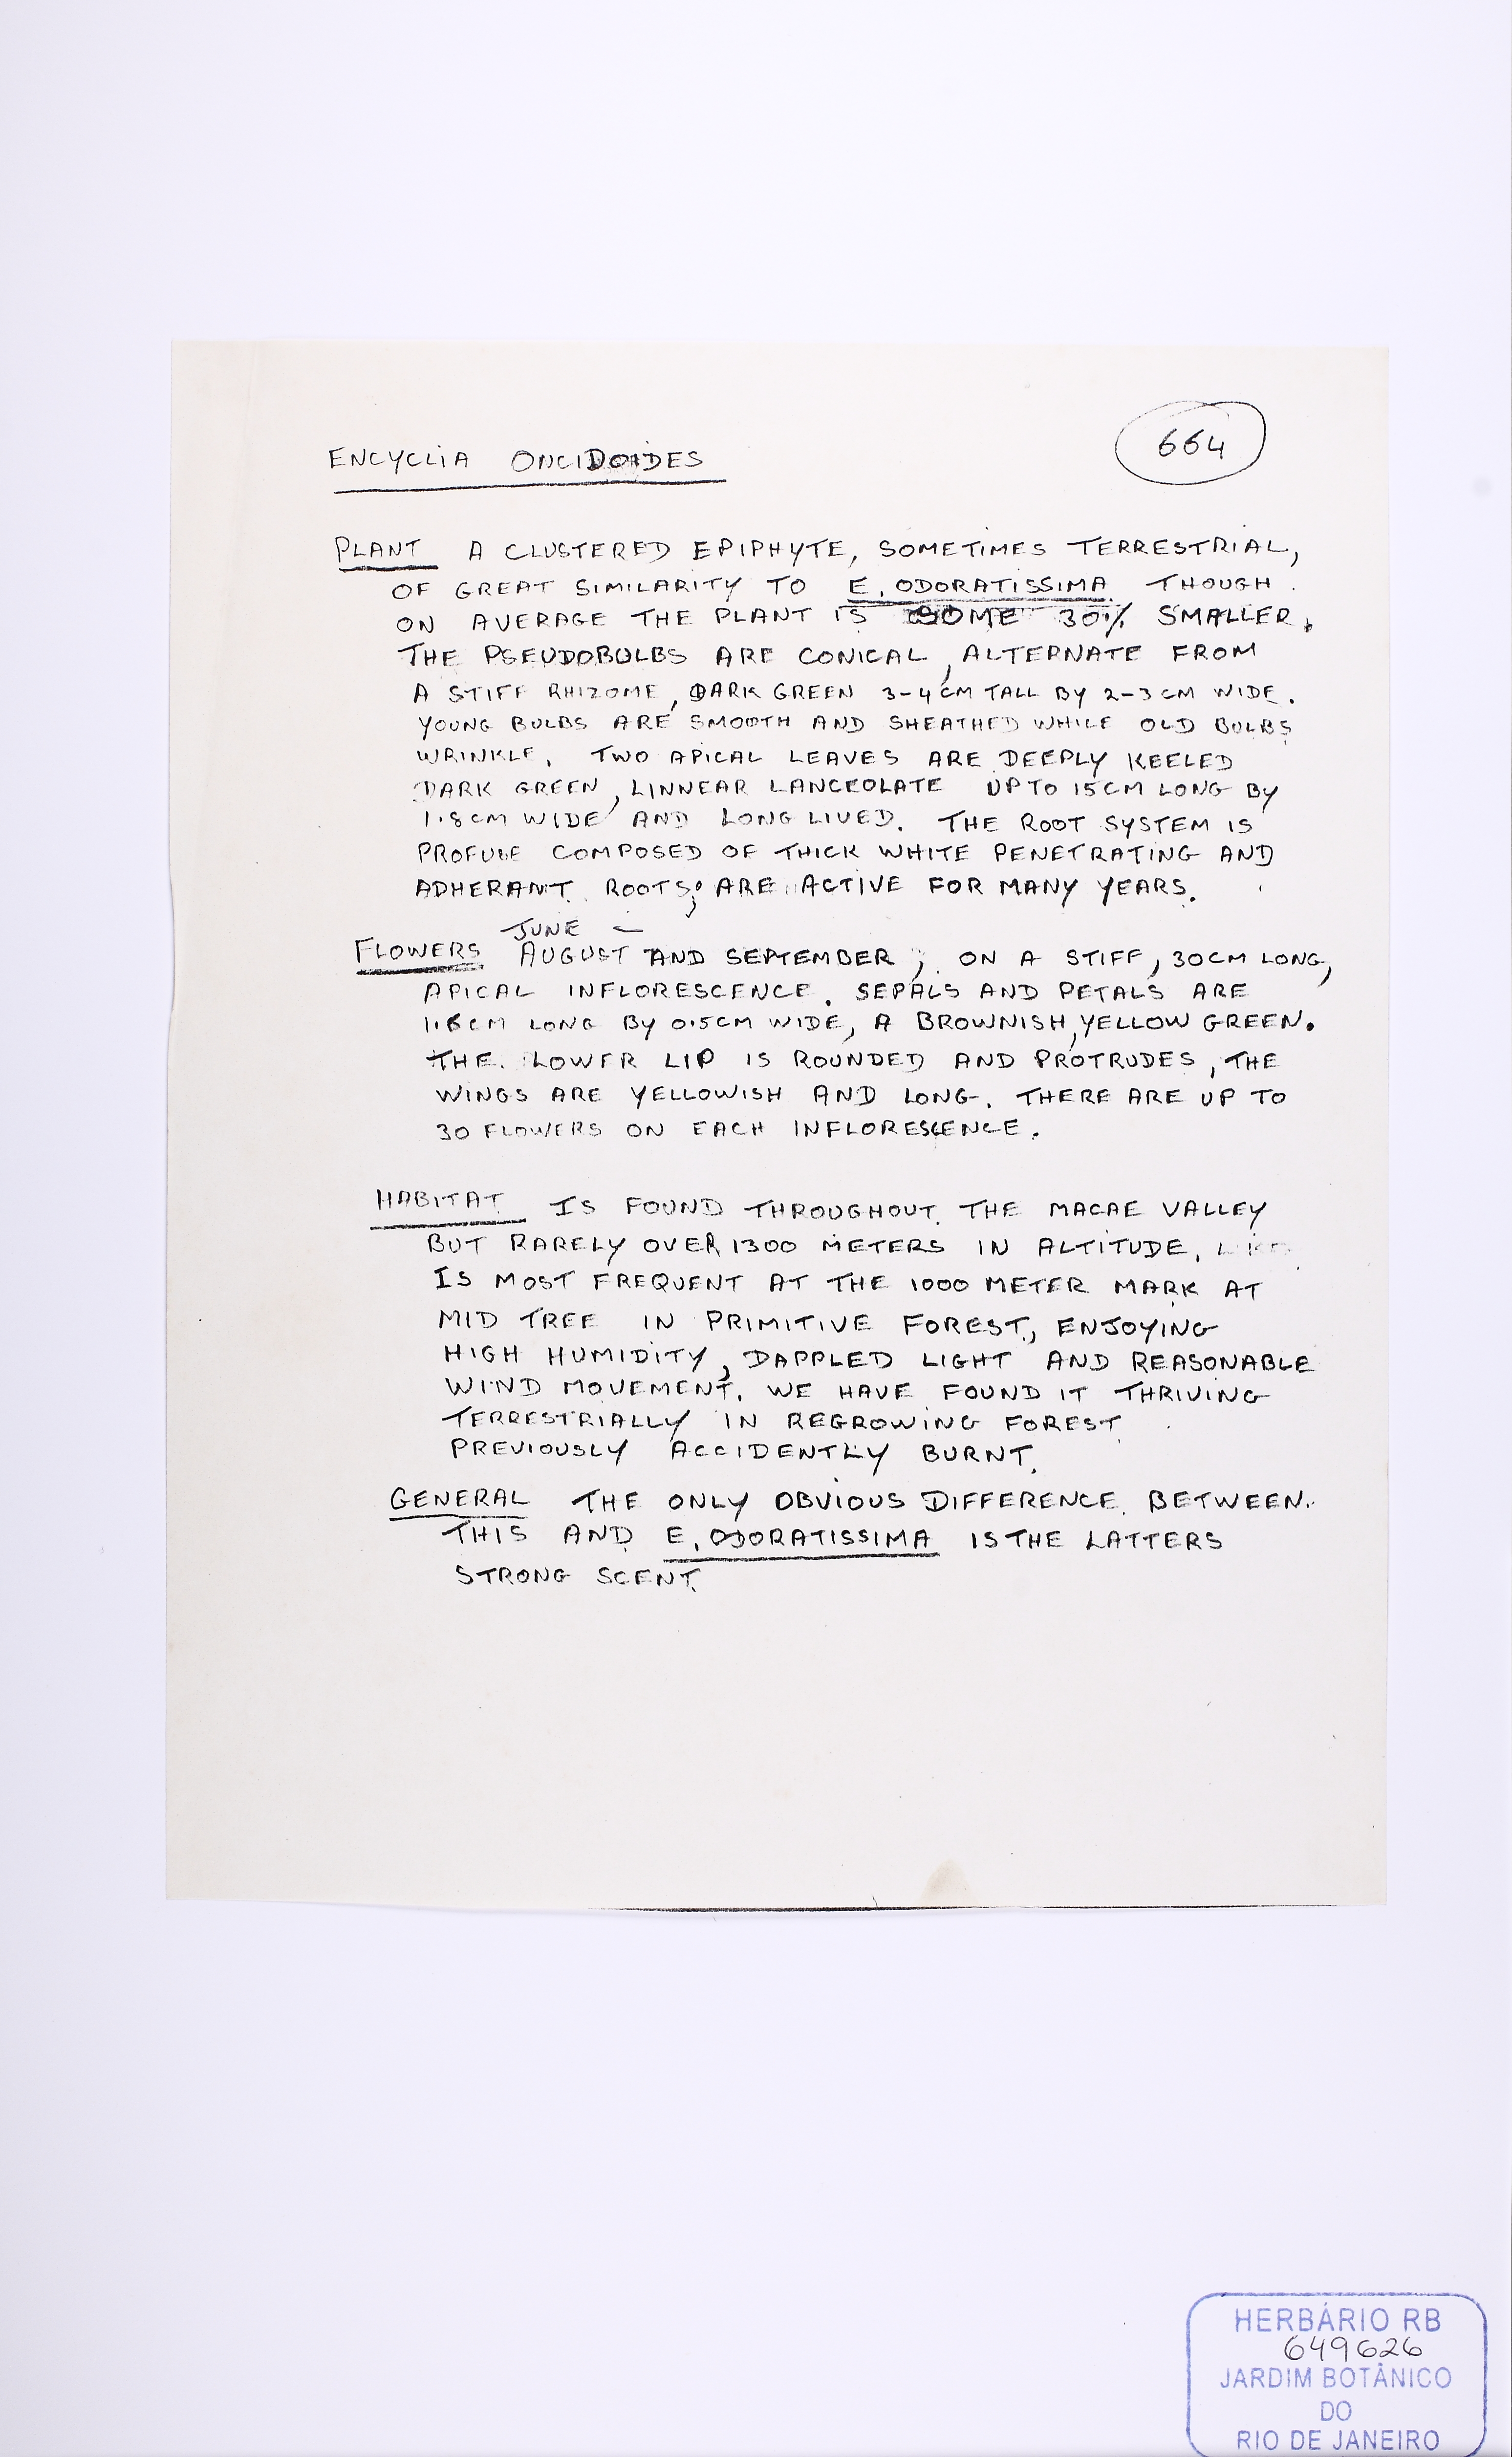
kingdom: Plantae
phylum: Tracheophyta
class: Liliopsida
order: Asparagales
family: Orchidaceae
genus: Encyclia
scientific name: Encyclia oncidioides
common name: Heavyfruit butterfly orchid
